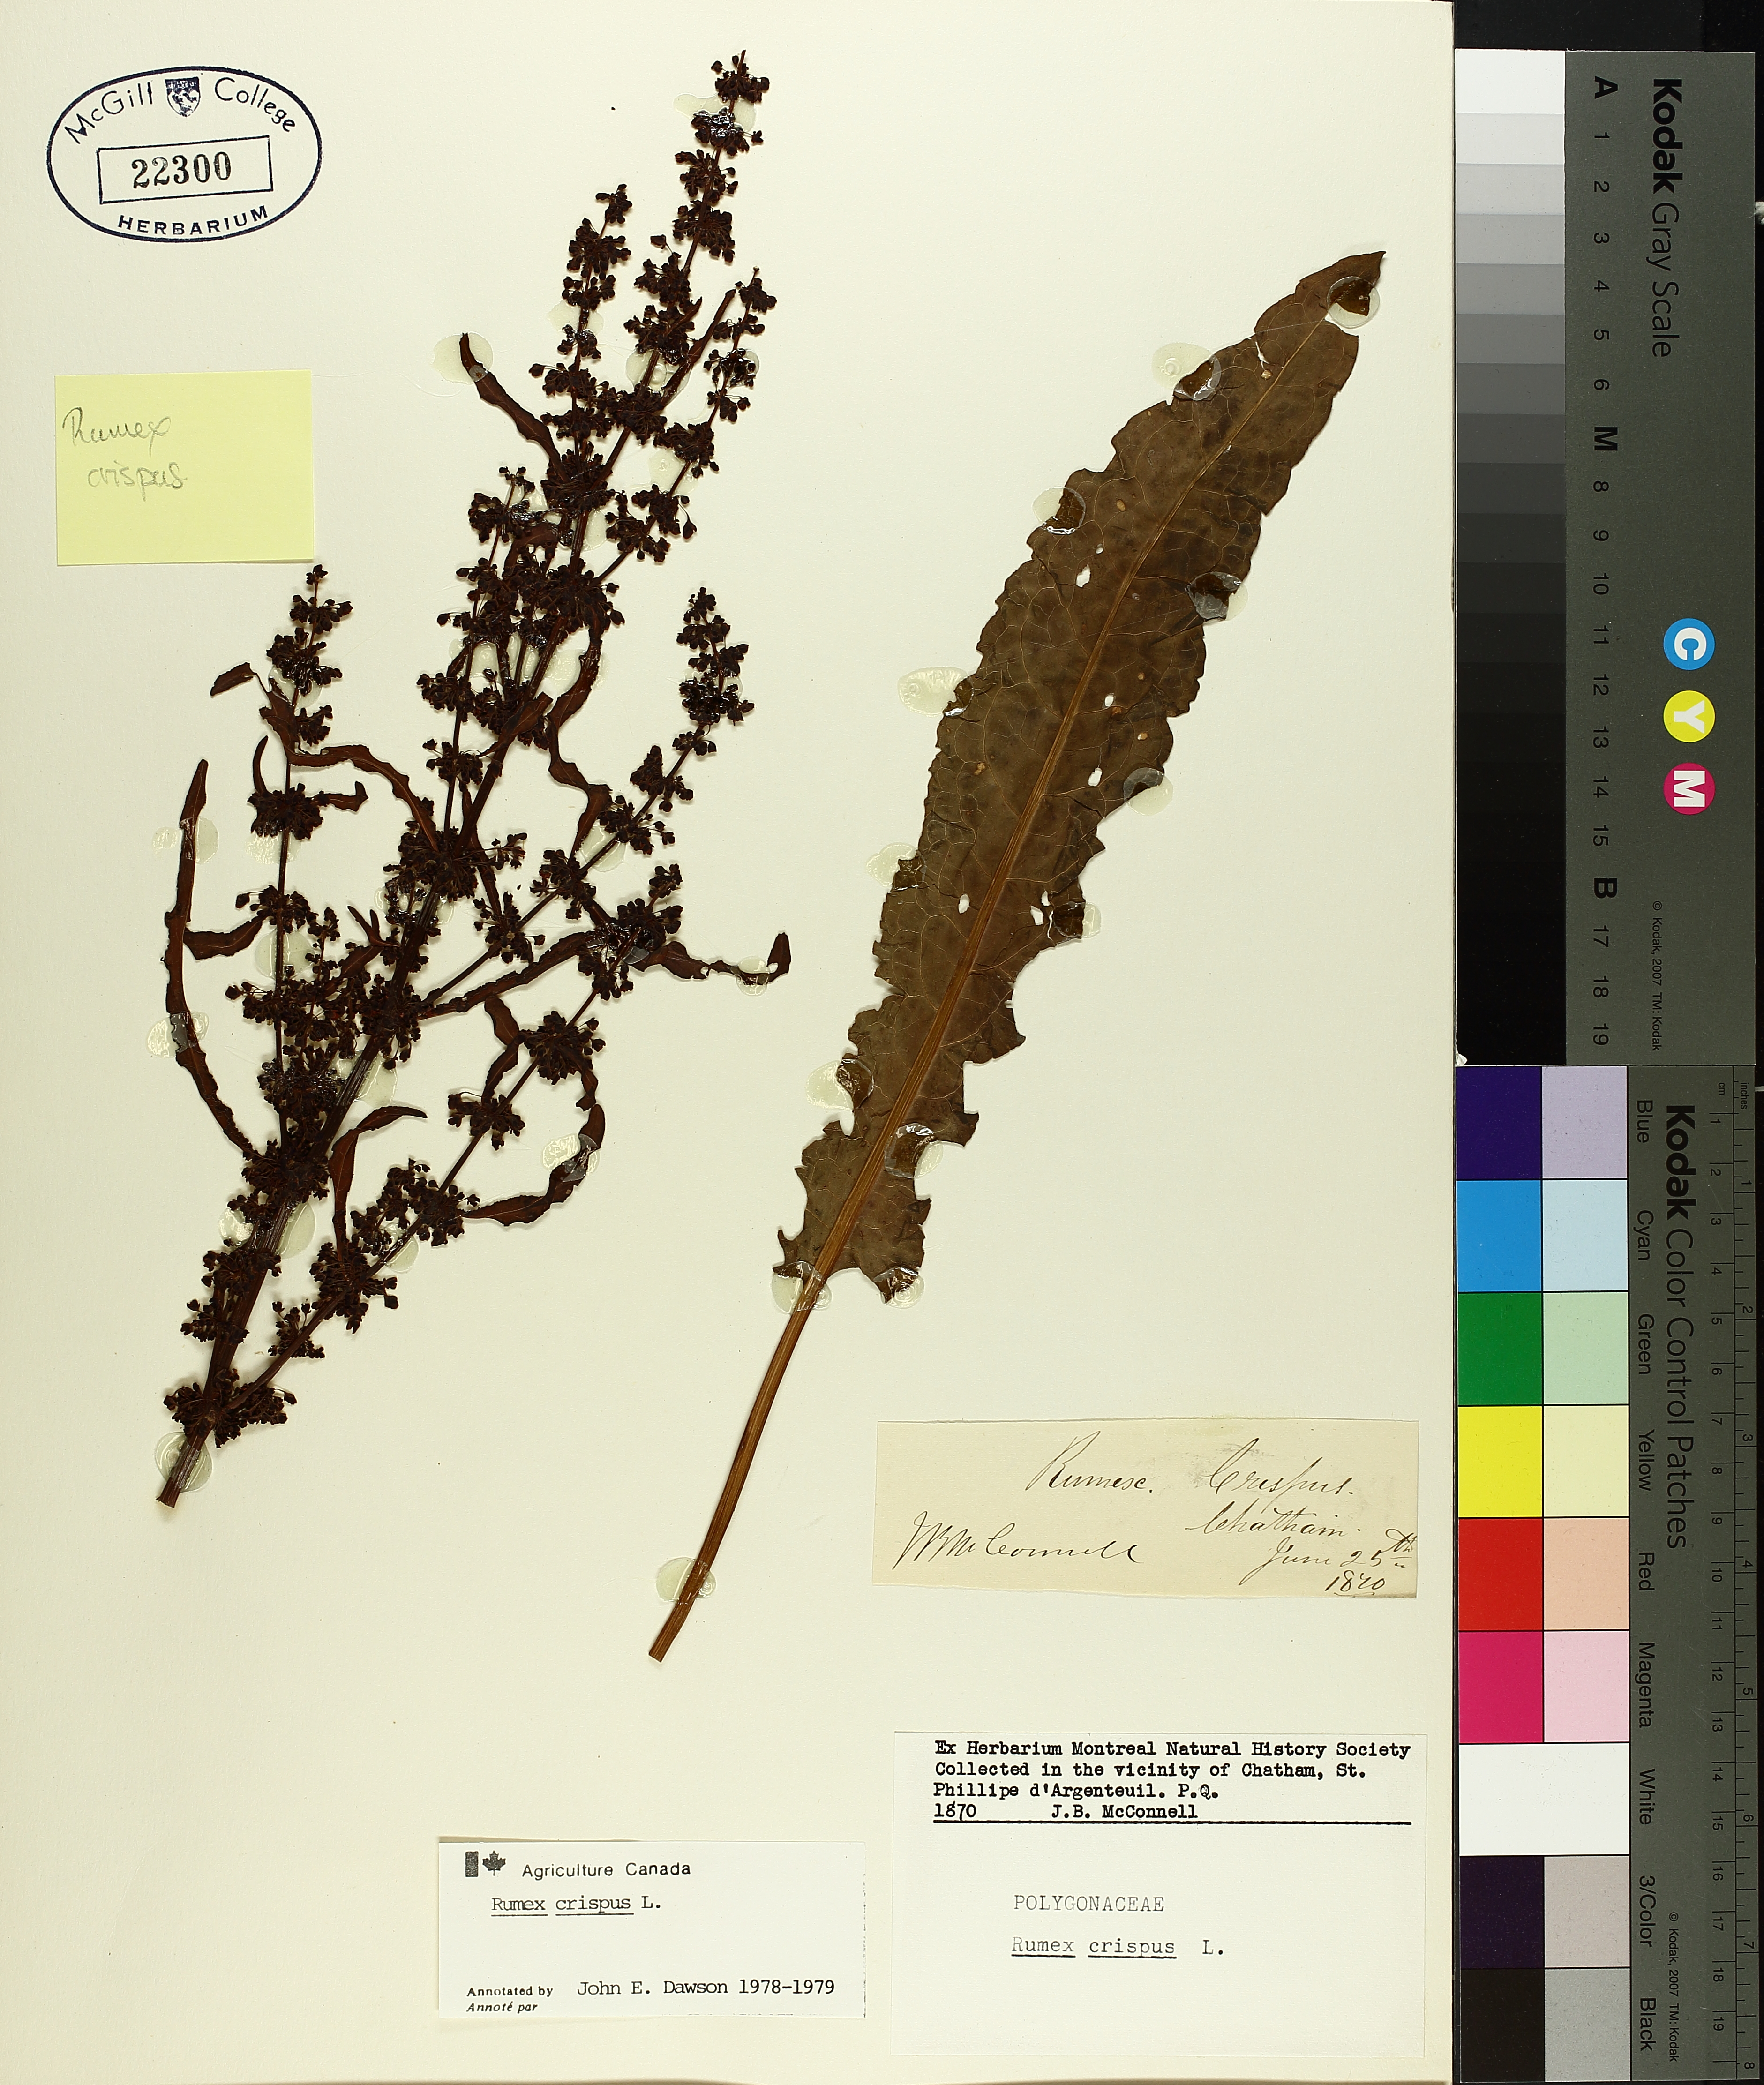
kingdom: Plantae
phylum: Tracheophyta
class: Magnoliopsida
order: Caryophyllales
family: Polygonaceae
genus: Rumex
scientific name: Rumex crispus
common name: Curled dock
